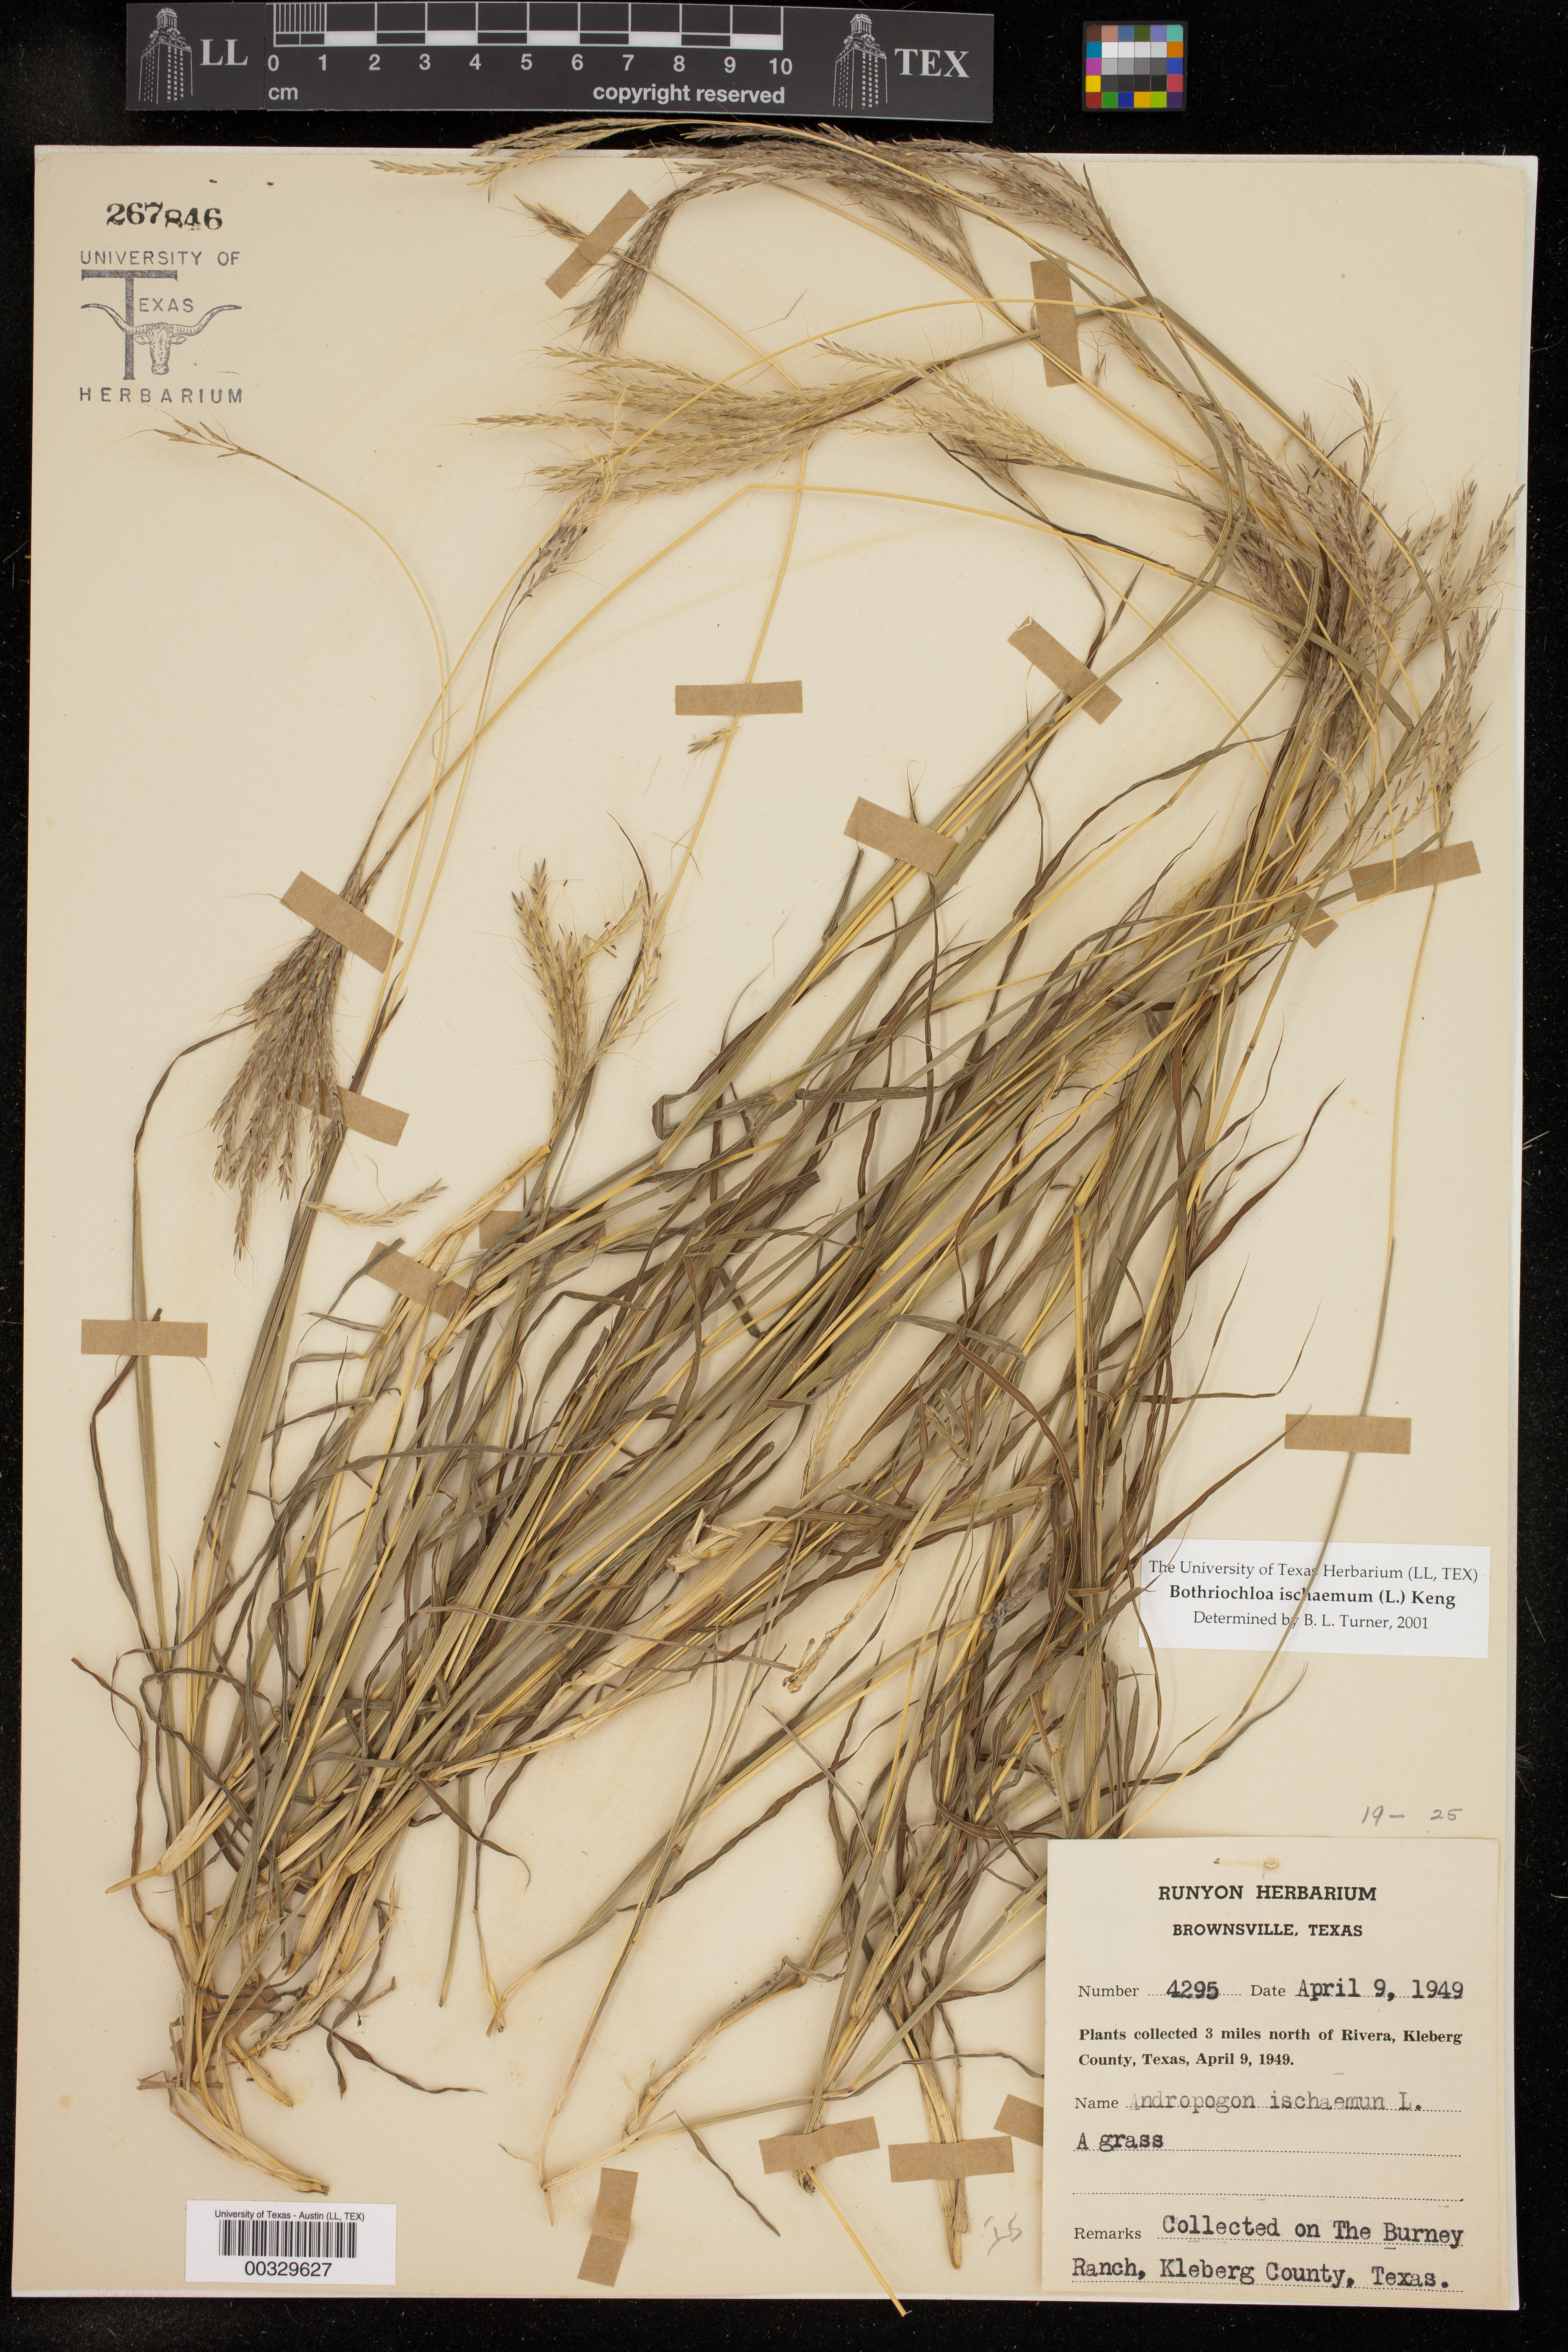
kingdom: Plantae
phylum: Tracheophyta
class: Liliopsida
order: Poales
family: Poaceae
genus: Bothriochloa
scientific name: Bothriochloa ischaemum
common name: Yellow bluestem
